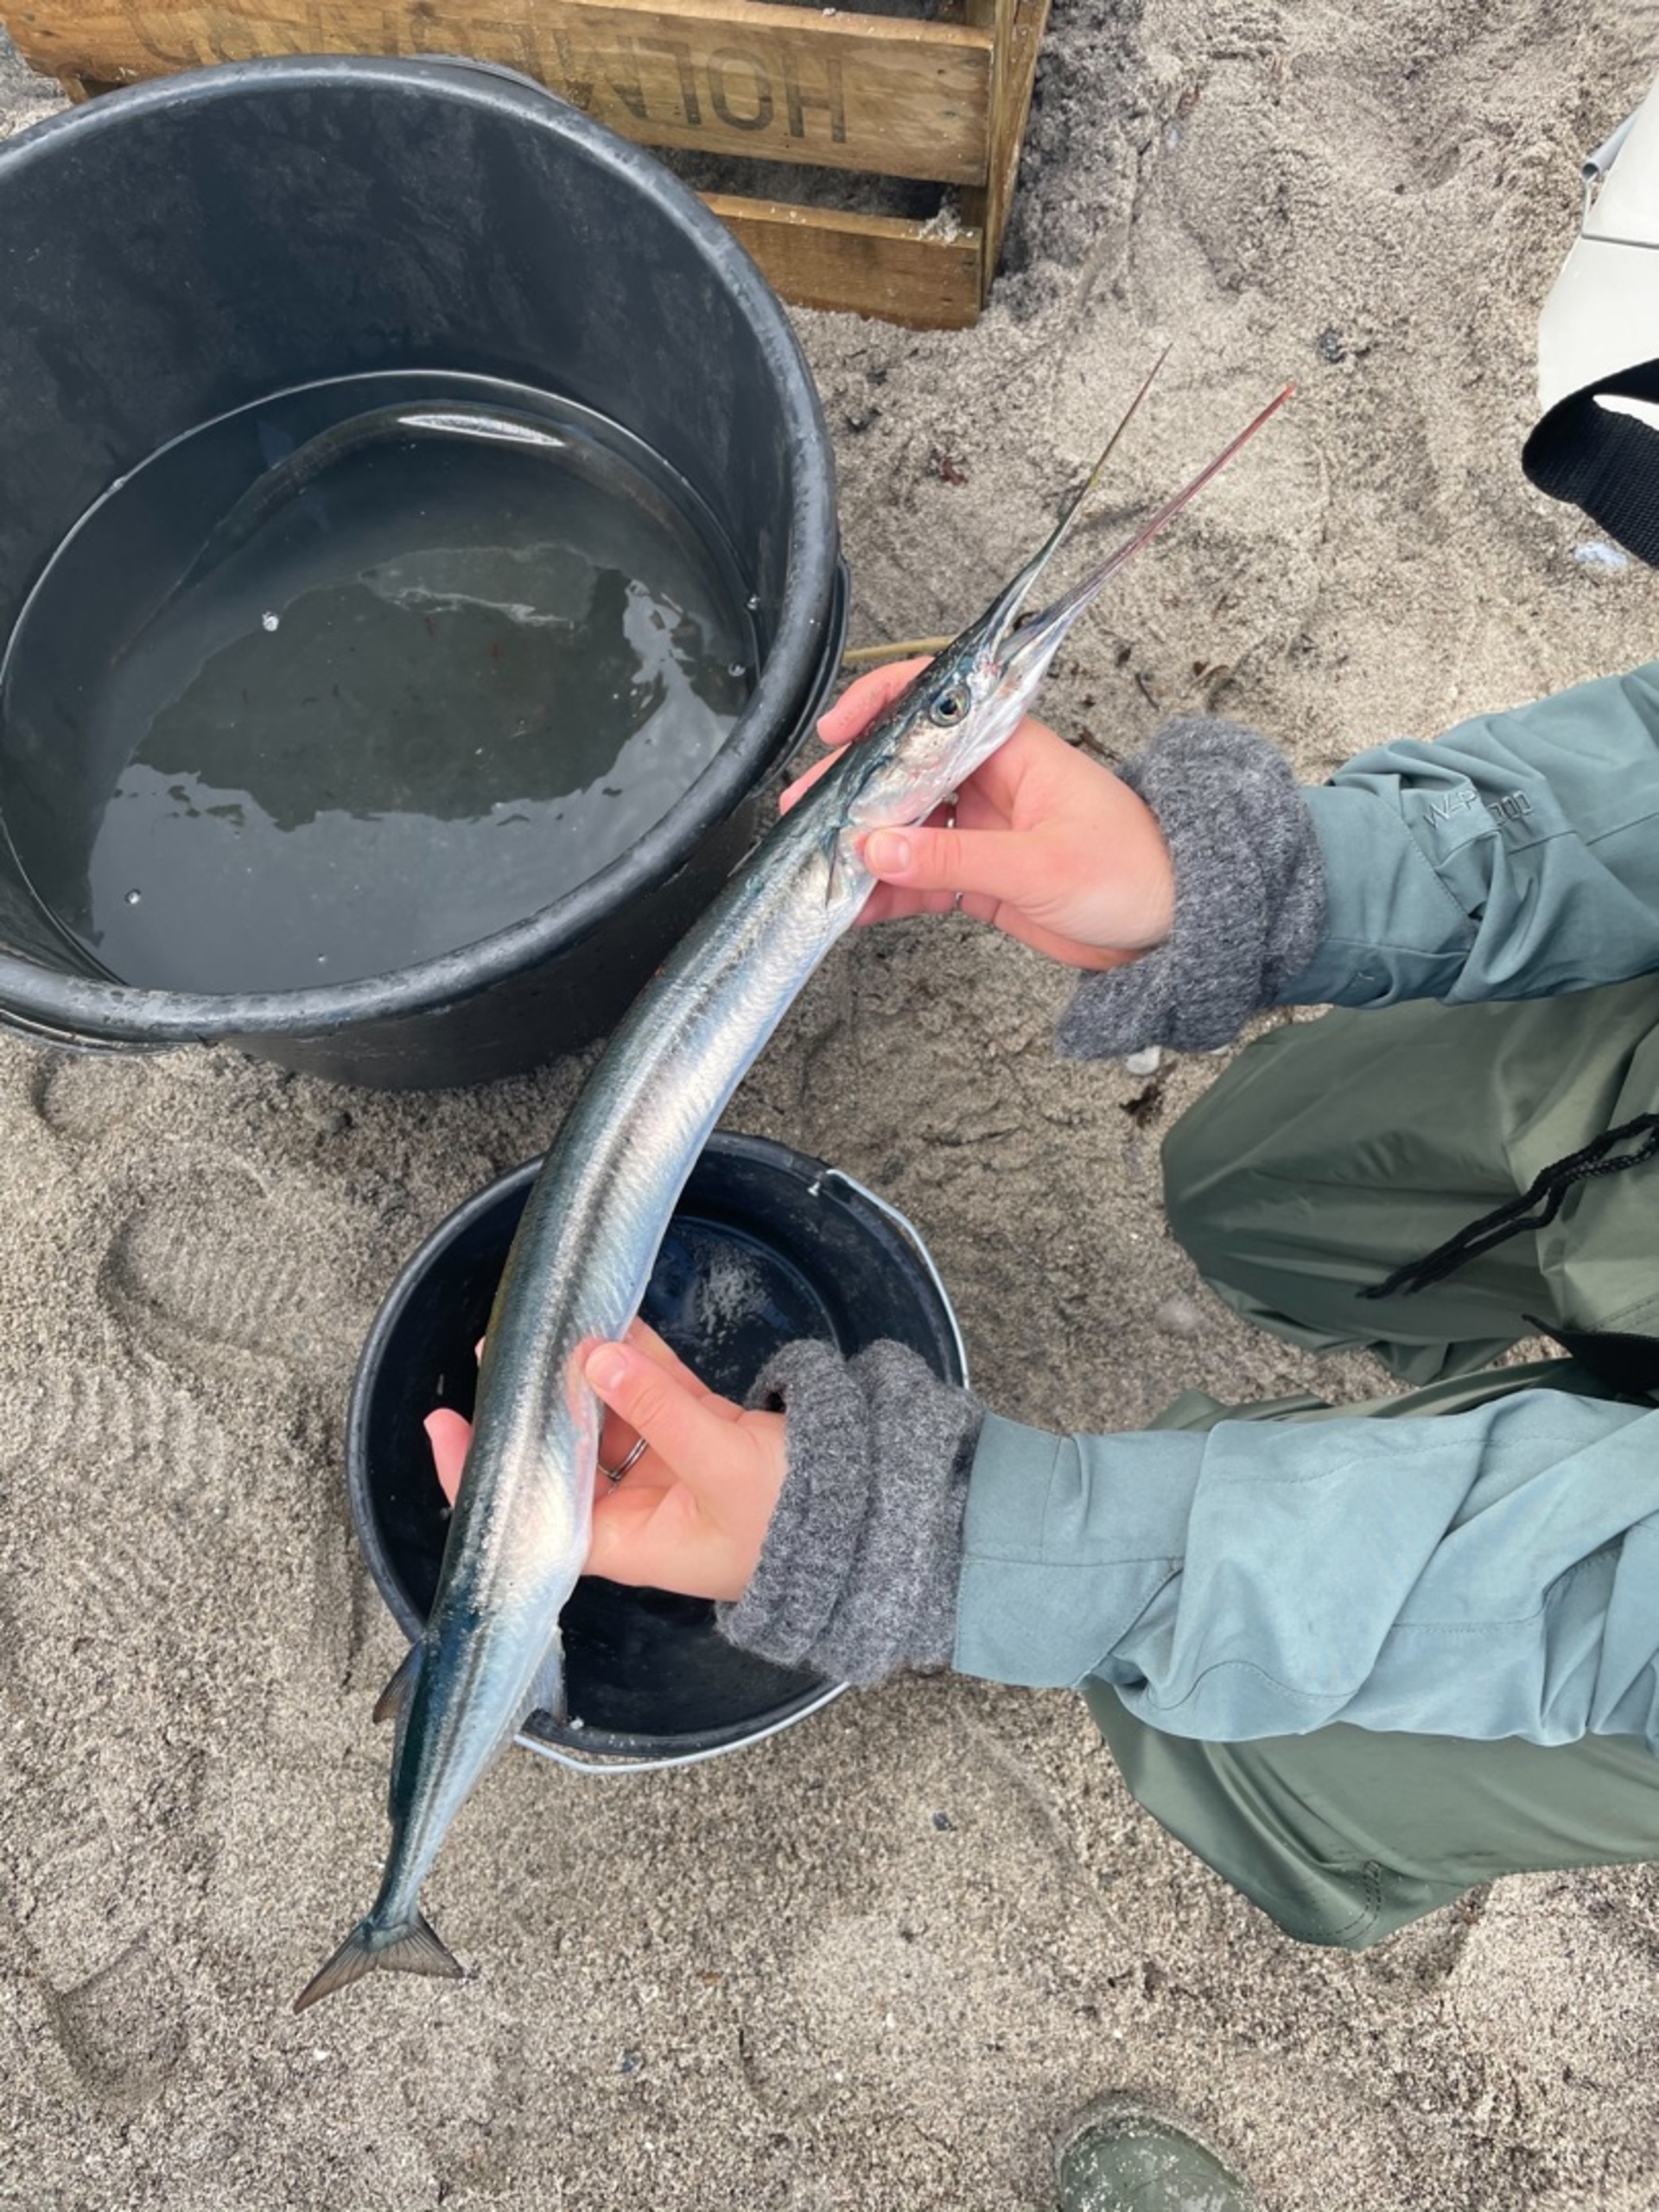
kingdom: Animalia
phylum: Chordata
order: Beloniformes
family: Belonidae
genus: Belone
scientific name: Belone belone
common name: Hornfisk
